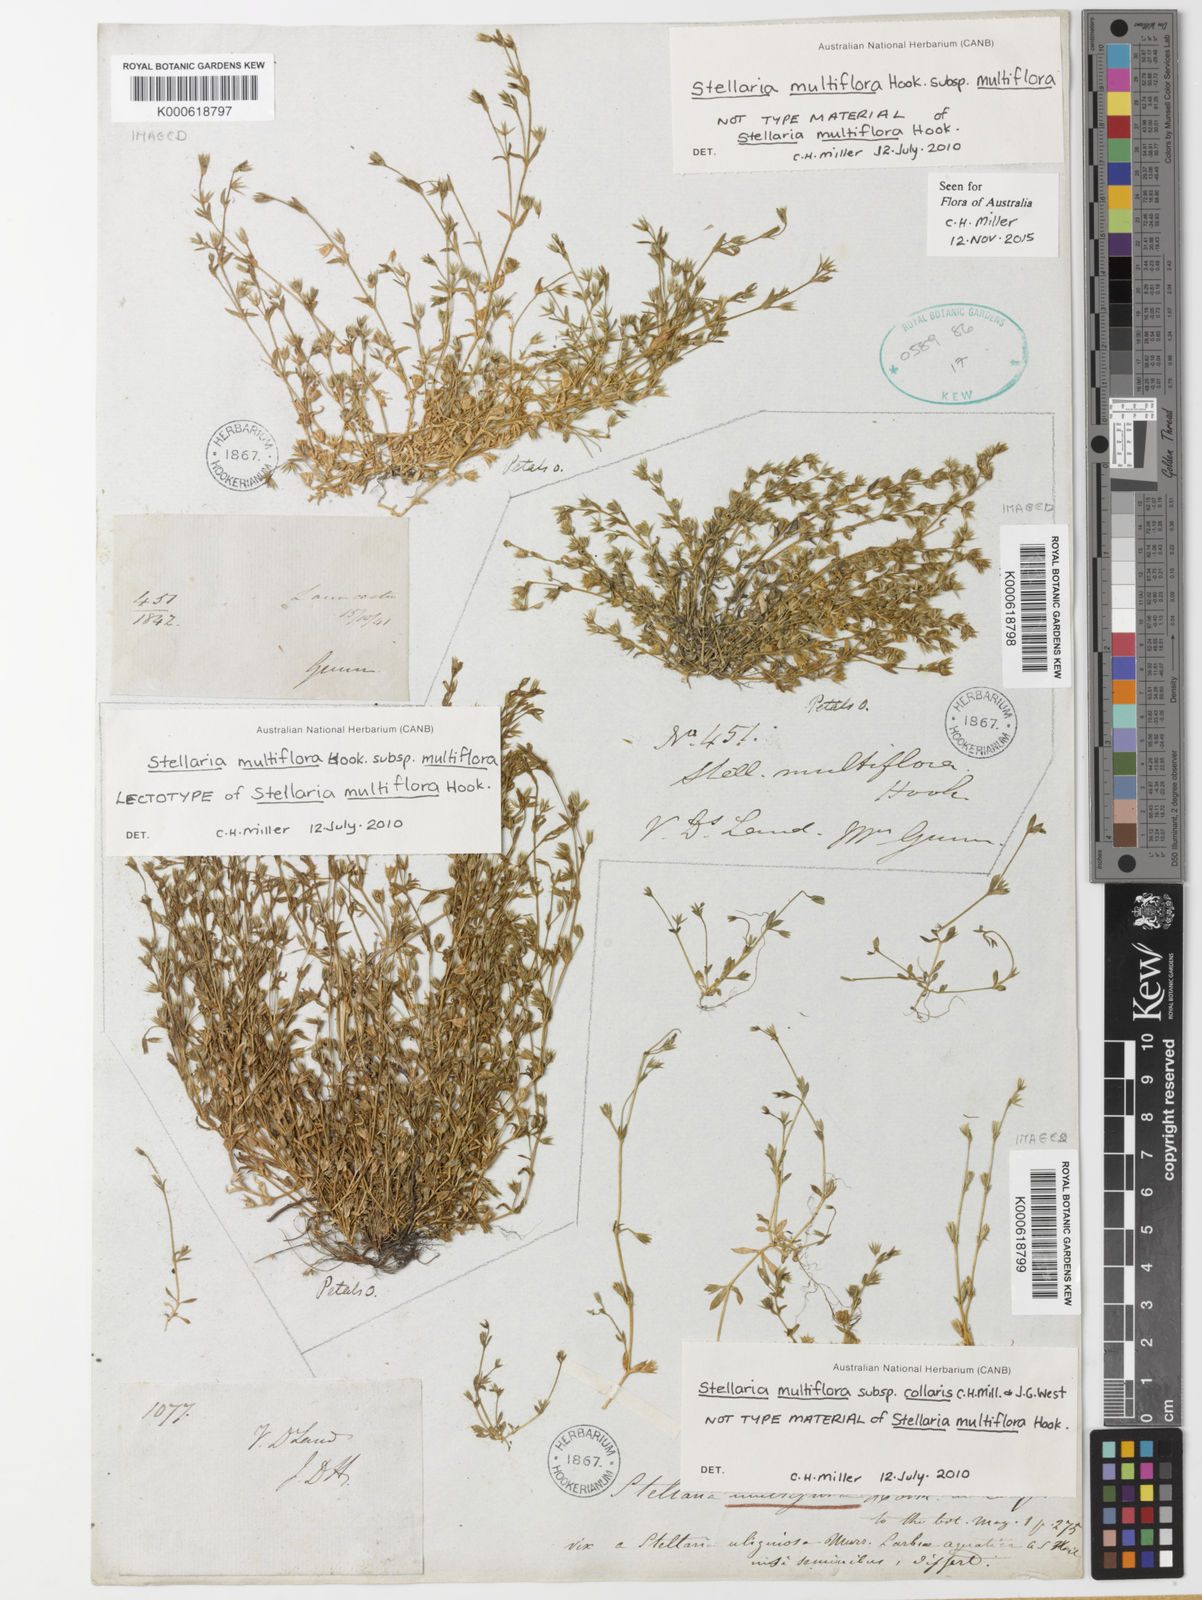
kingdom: Plantae
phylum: Tracheophyta
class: Magnoliopsida
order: Caryophyllales
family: Caryophyllaceae
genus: Stellaria
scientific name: Stellaria multiflora
